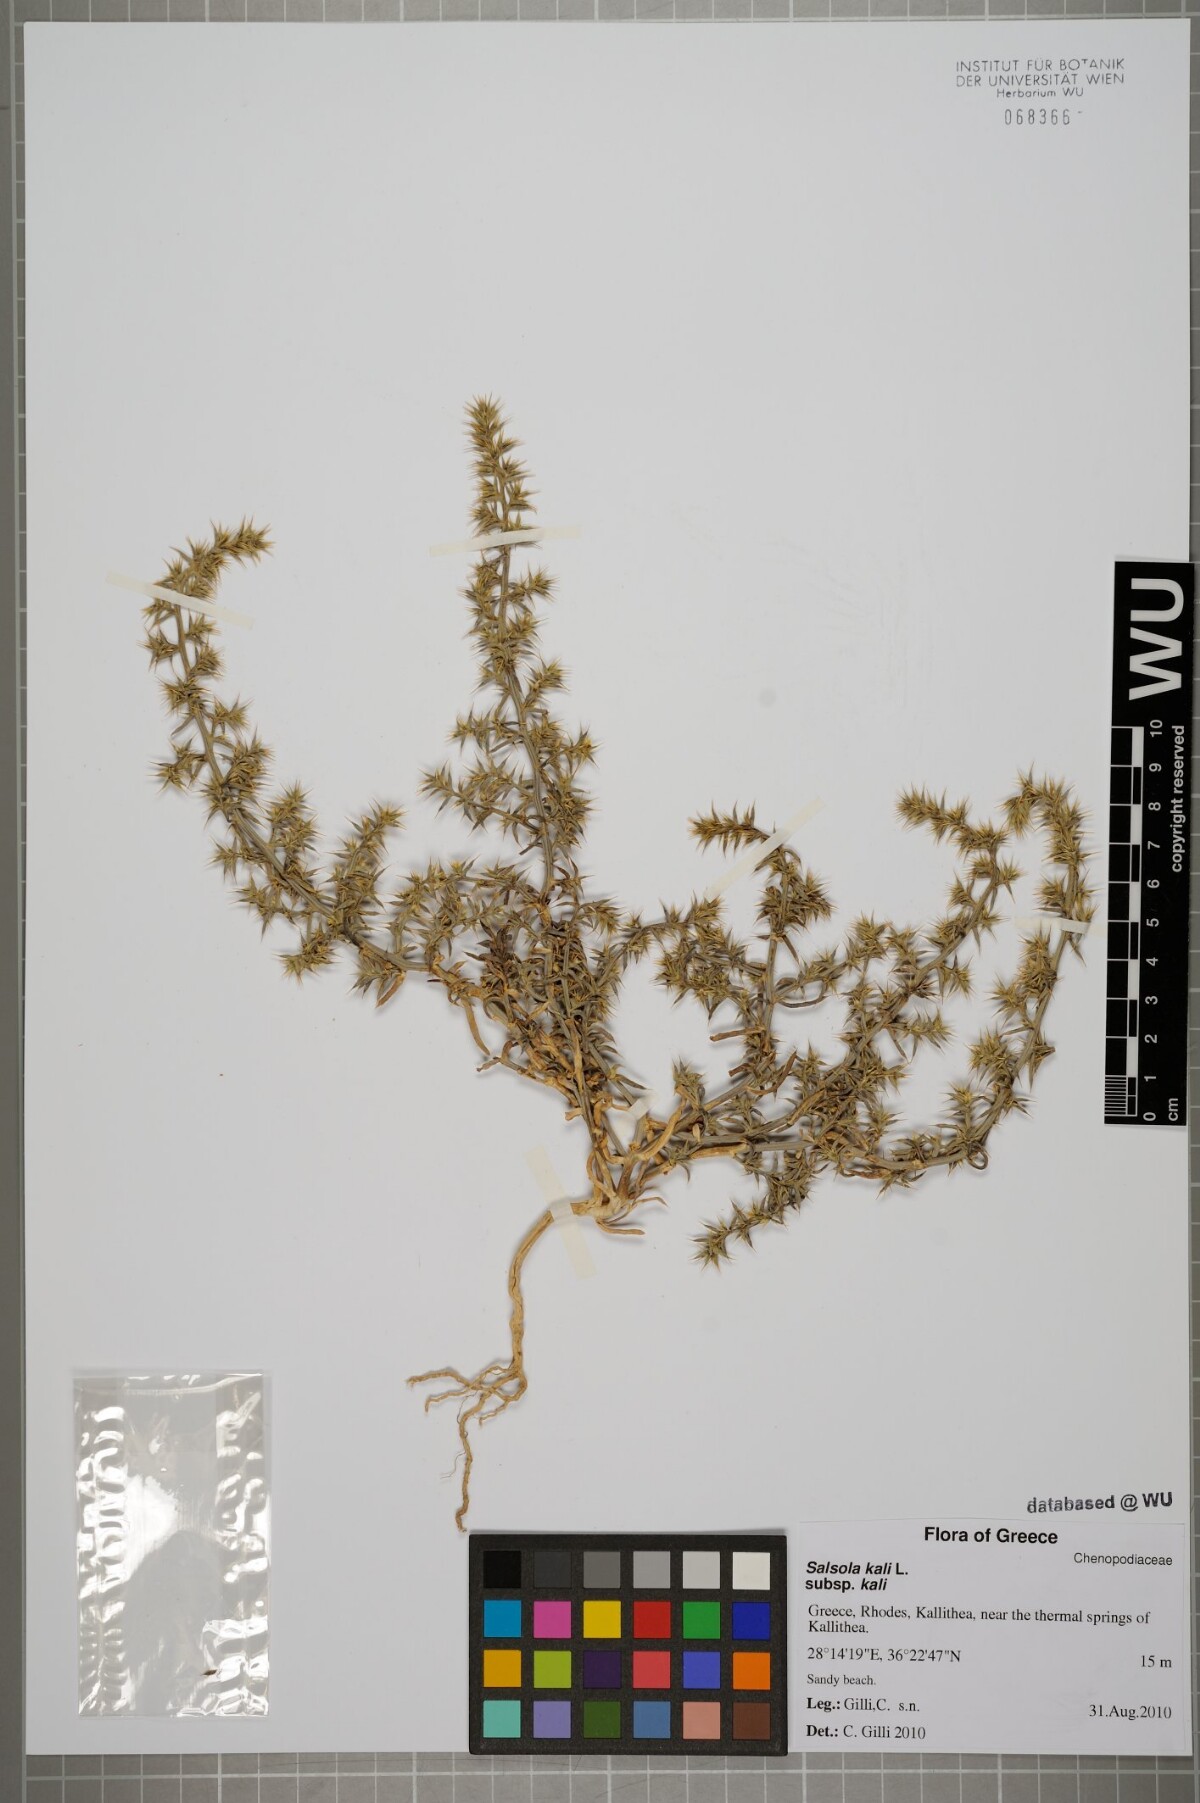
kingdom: Plantae
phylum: Tracheophyta
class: Magnoliopsida
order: Caryophyllales
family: Amaranthaceae
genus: Salsola
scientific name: Salsola kali
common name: Saltwort
